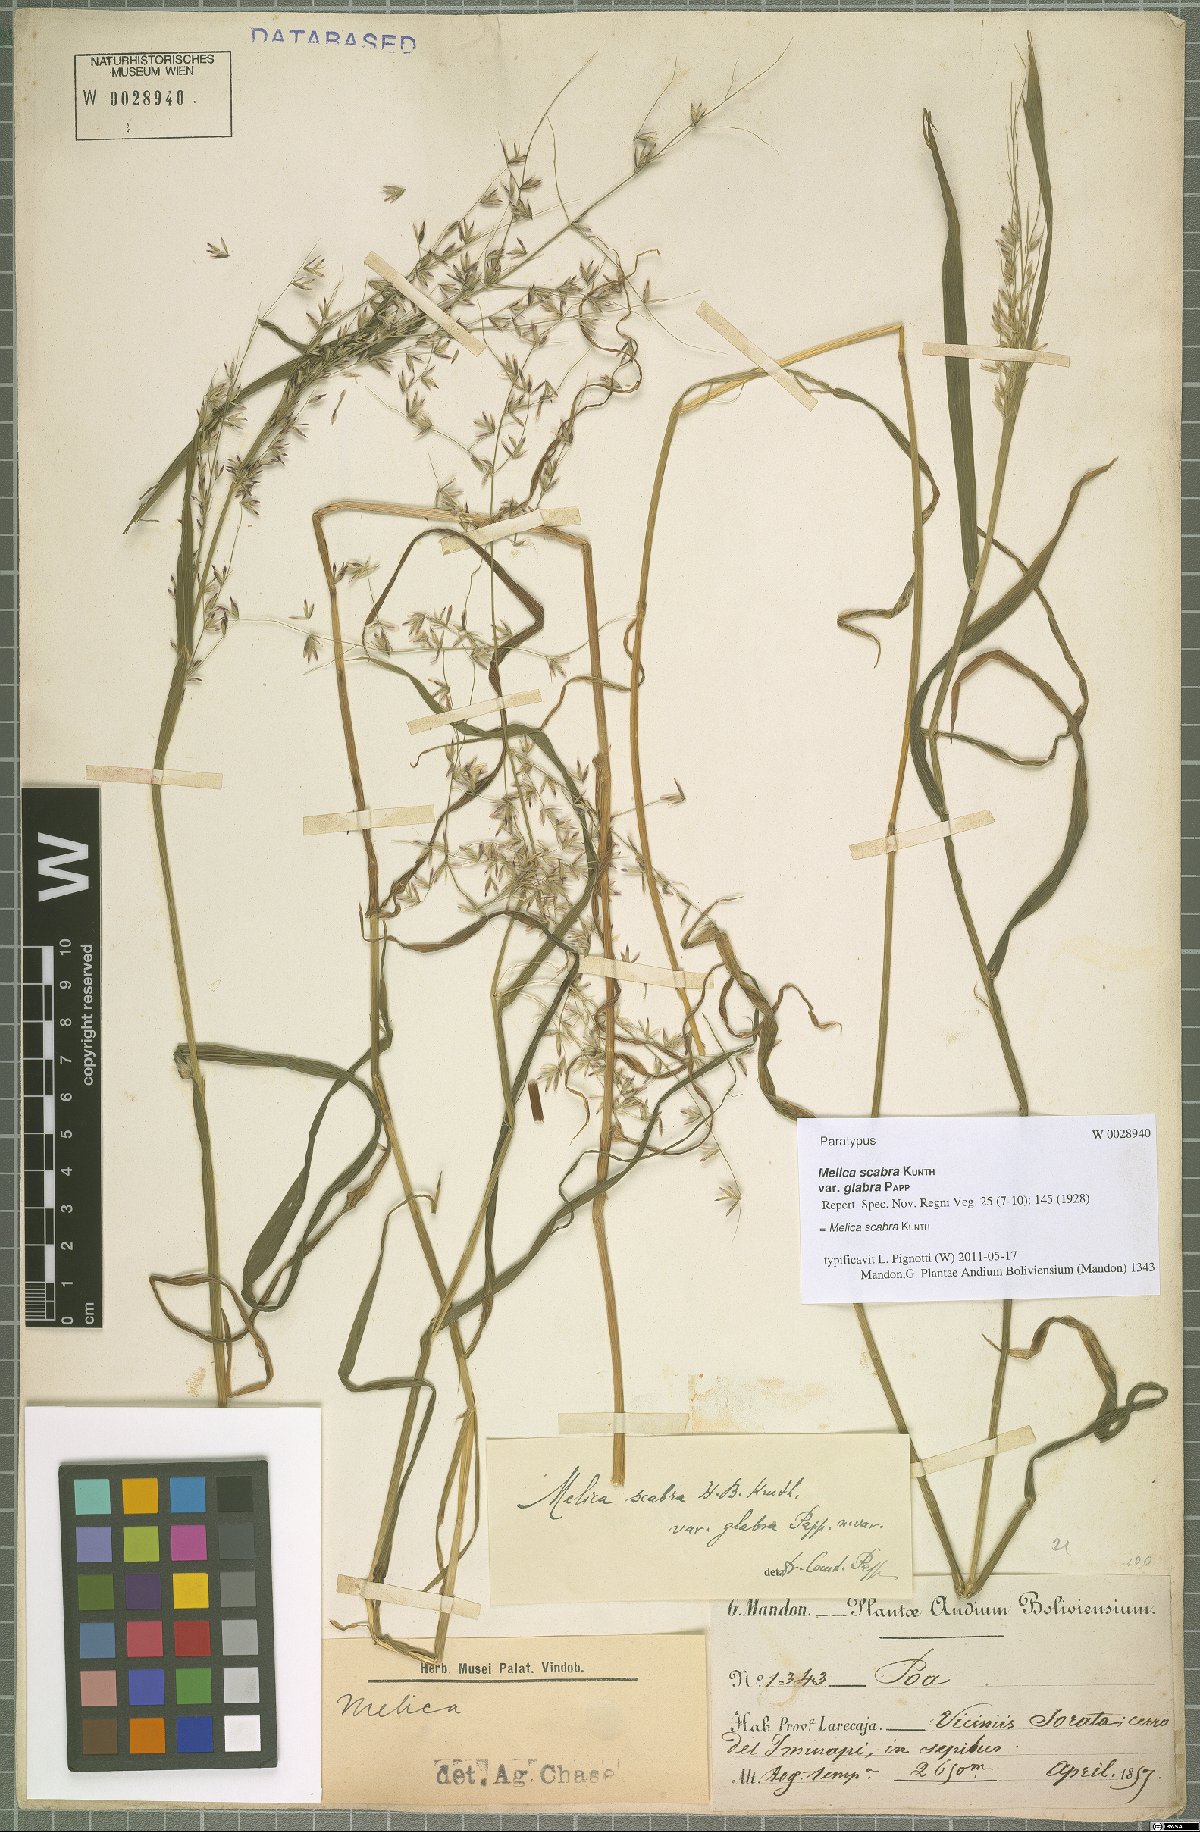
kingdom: Plantae
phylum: Tracheophyta
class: Liliopsida
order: Poales
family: Poaceae
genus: Melica
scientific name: Melica scabra
